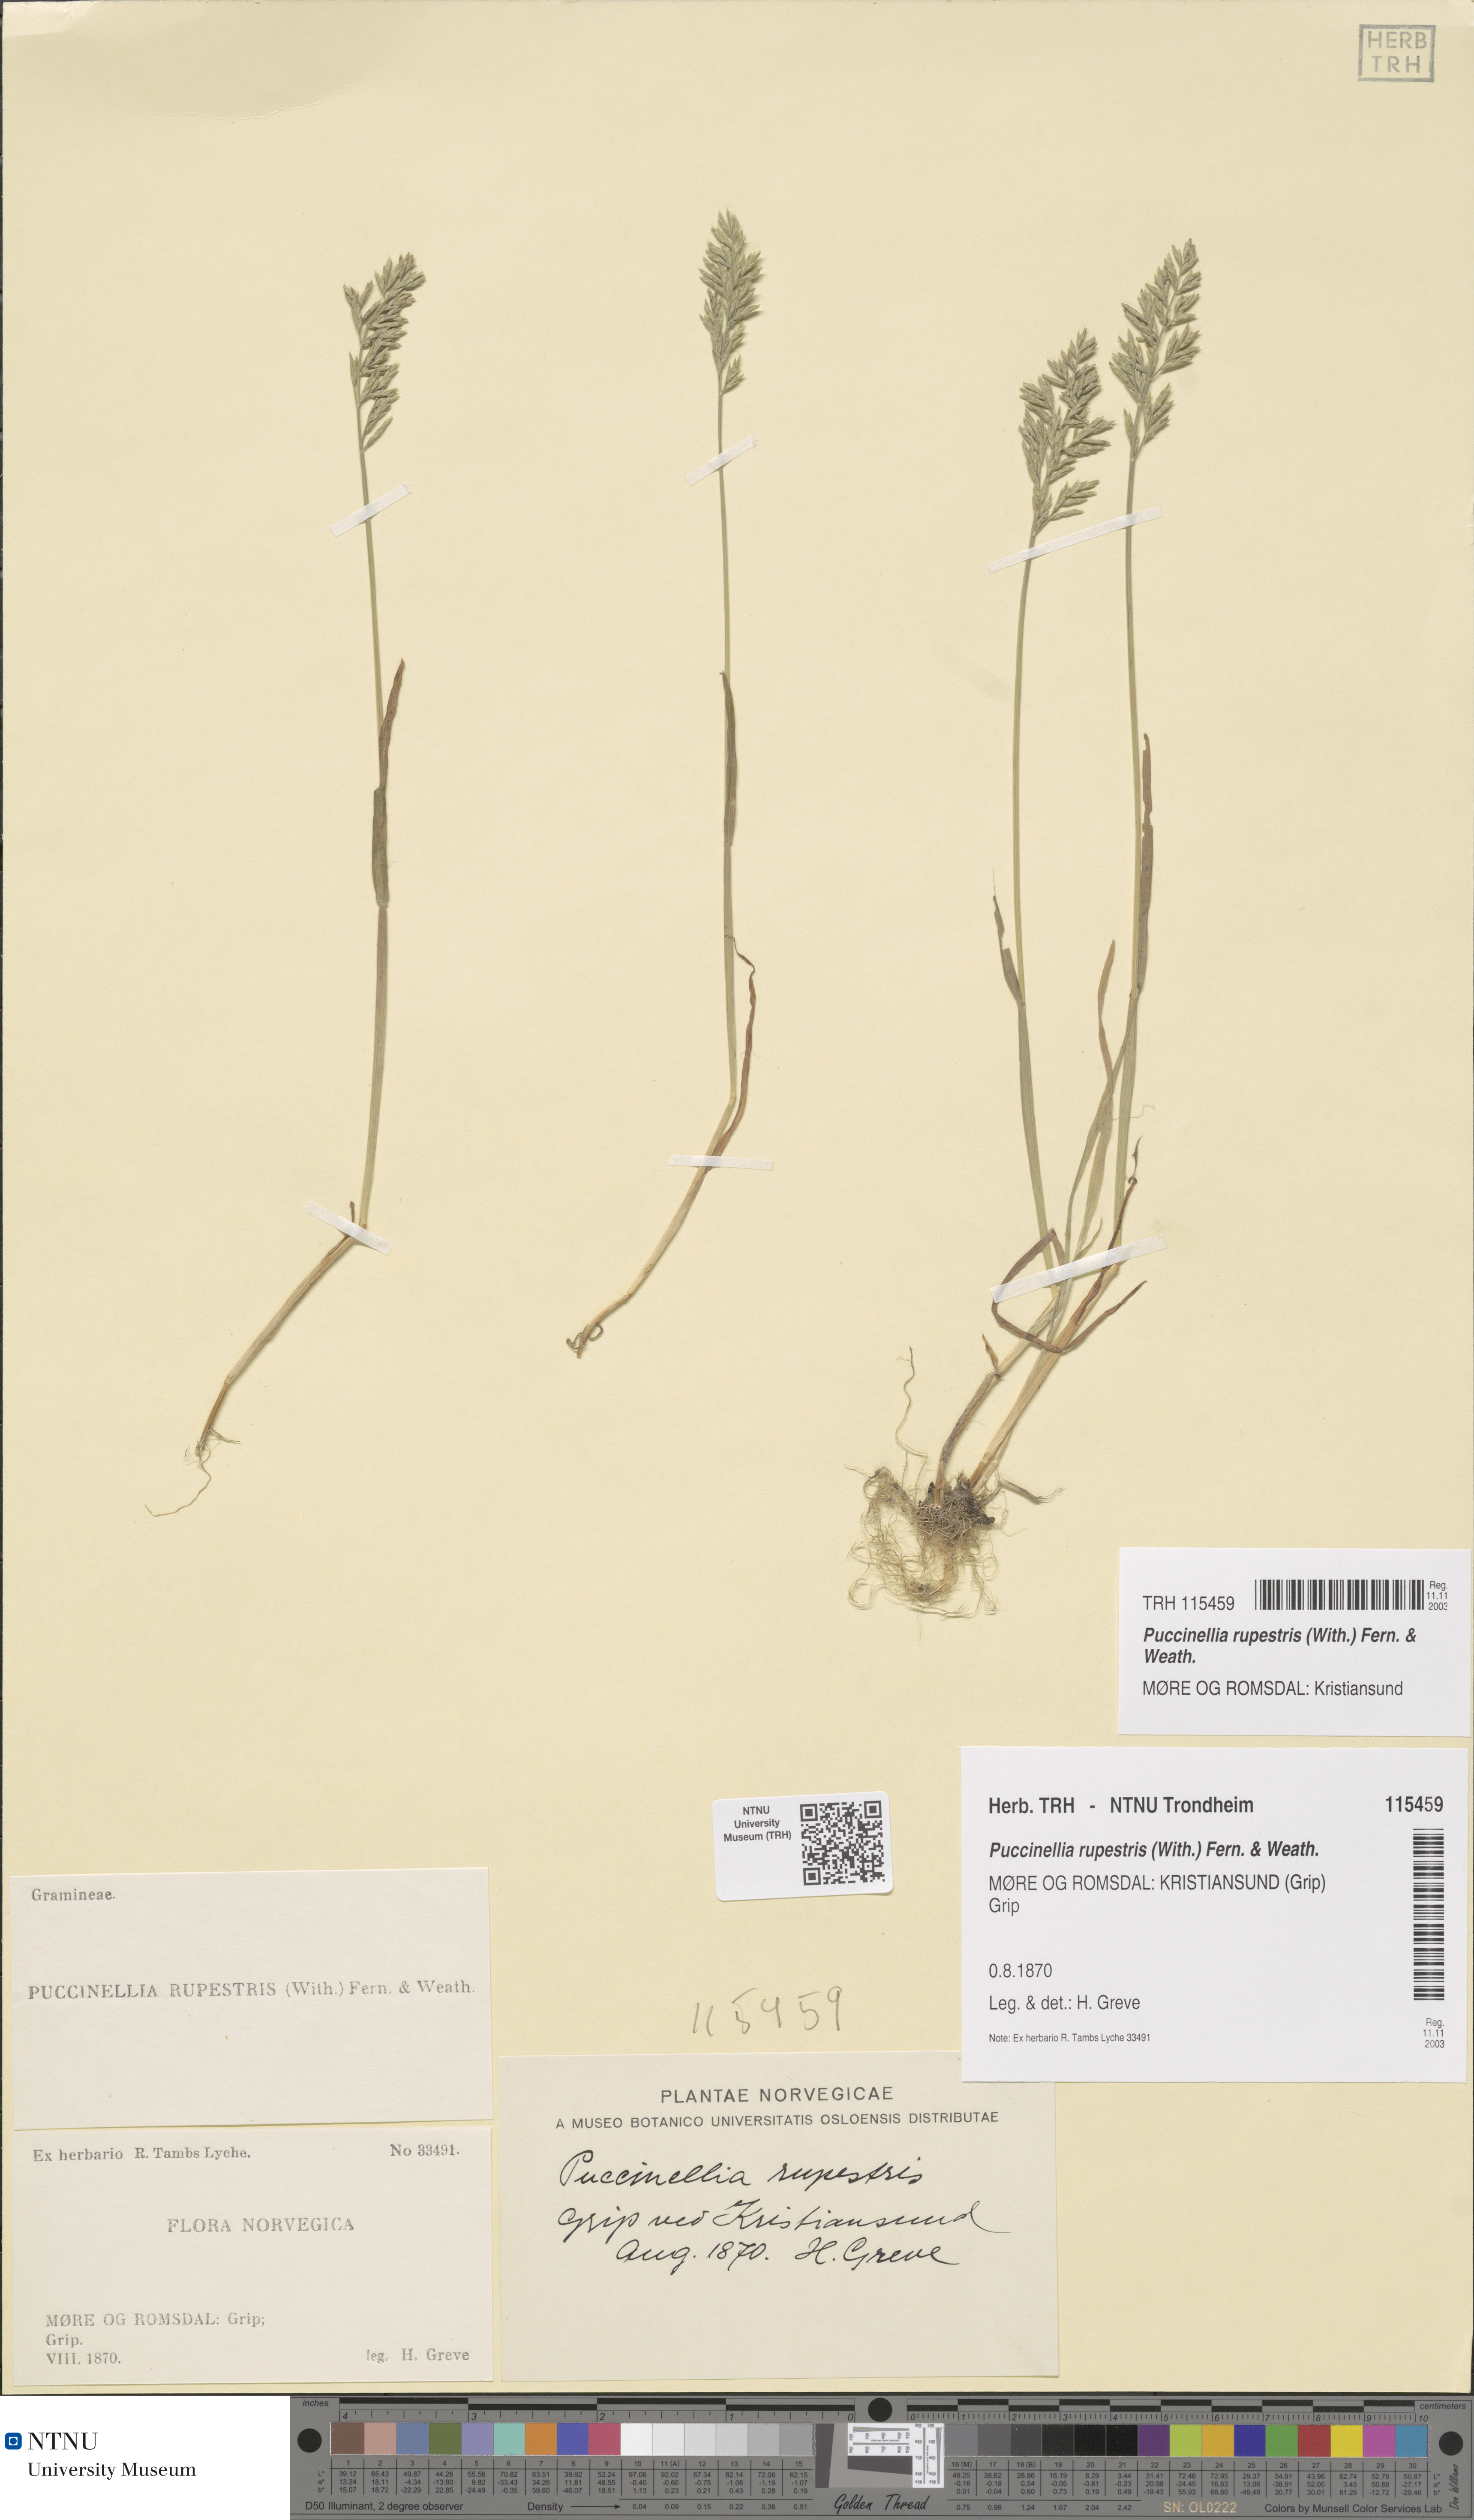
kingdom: Plantae
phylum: Tracheophyta
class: Liliopsida
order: Poales
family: Poaceae
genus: Puccinellia
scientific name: Puccinellia rupestris
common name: Stiff saltmarsh-grass
